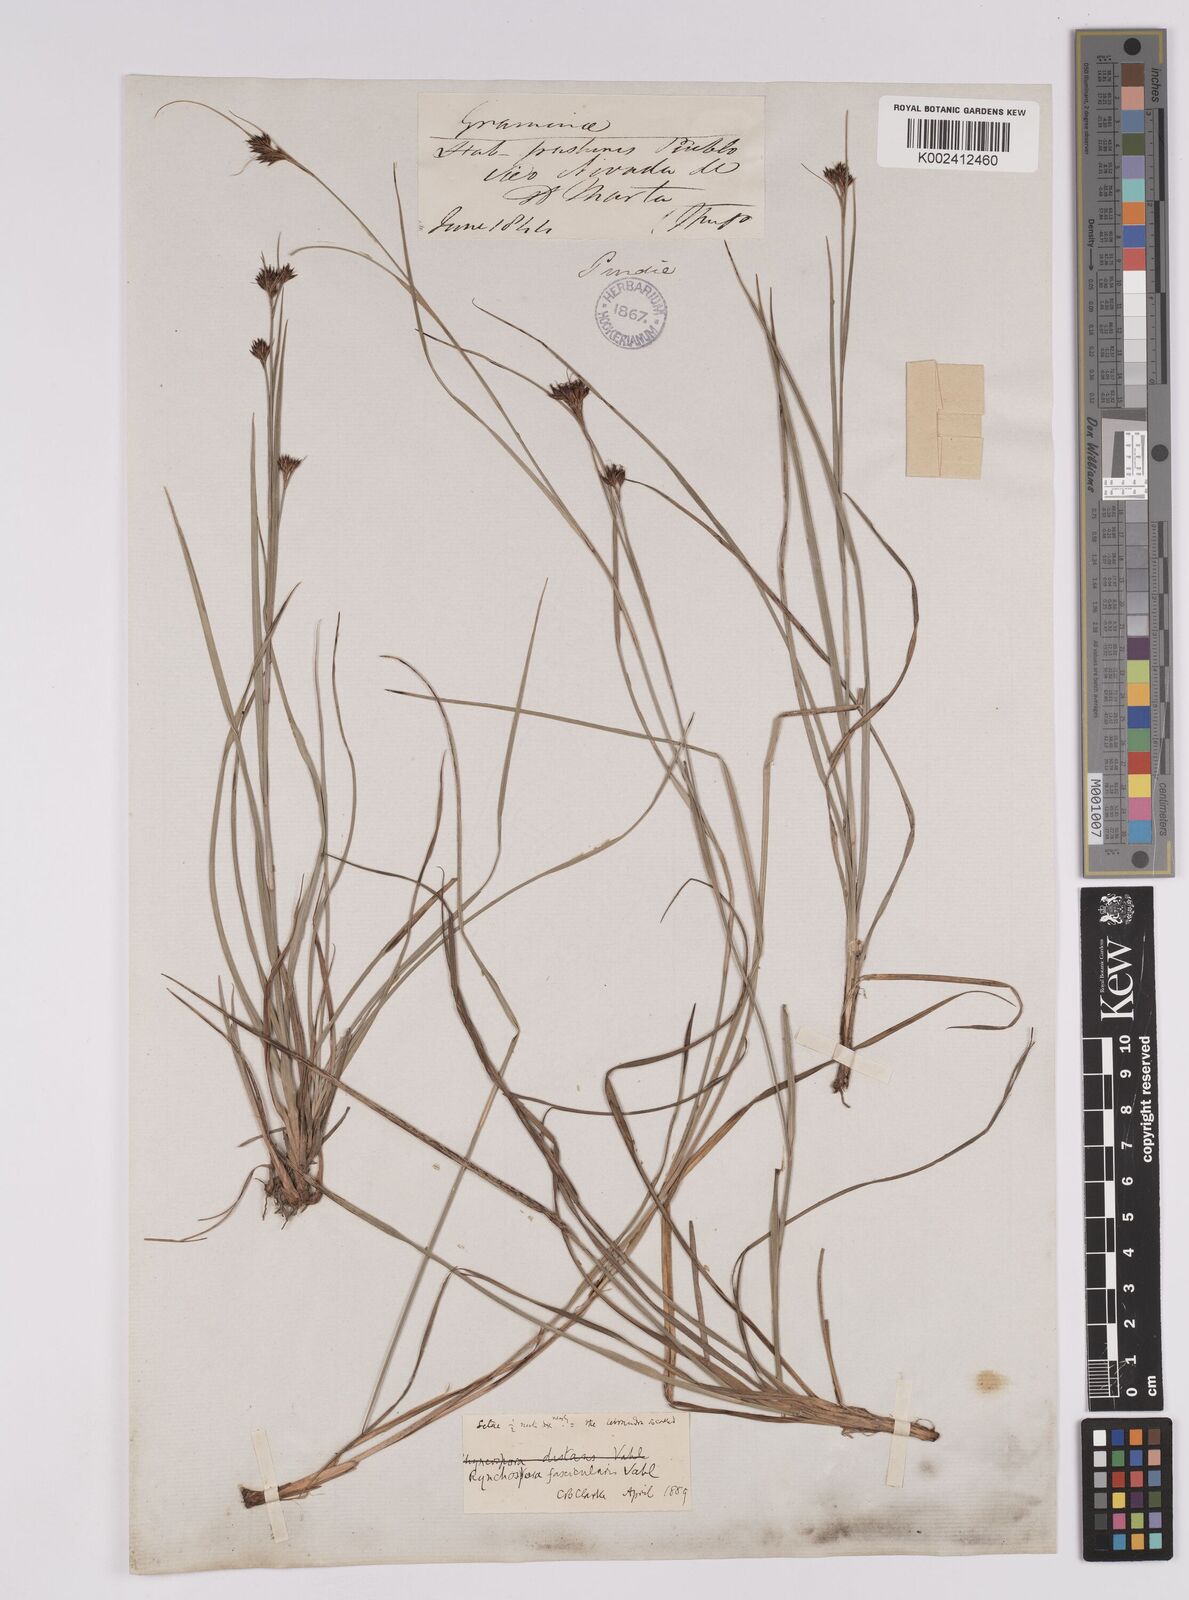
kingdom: Plantae
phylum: Tracheophyta
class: Liliopsida
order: Poales
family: Cyperaceae
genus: Rhynchospora
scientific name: Rhynchospora fascicularis
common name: Fascicled beak sedge
